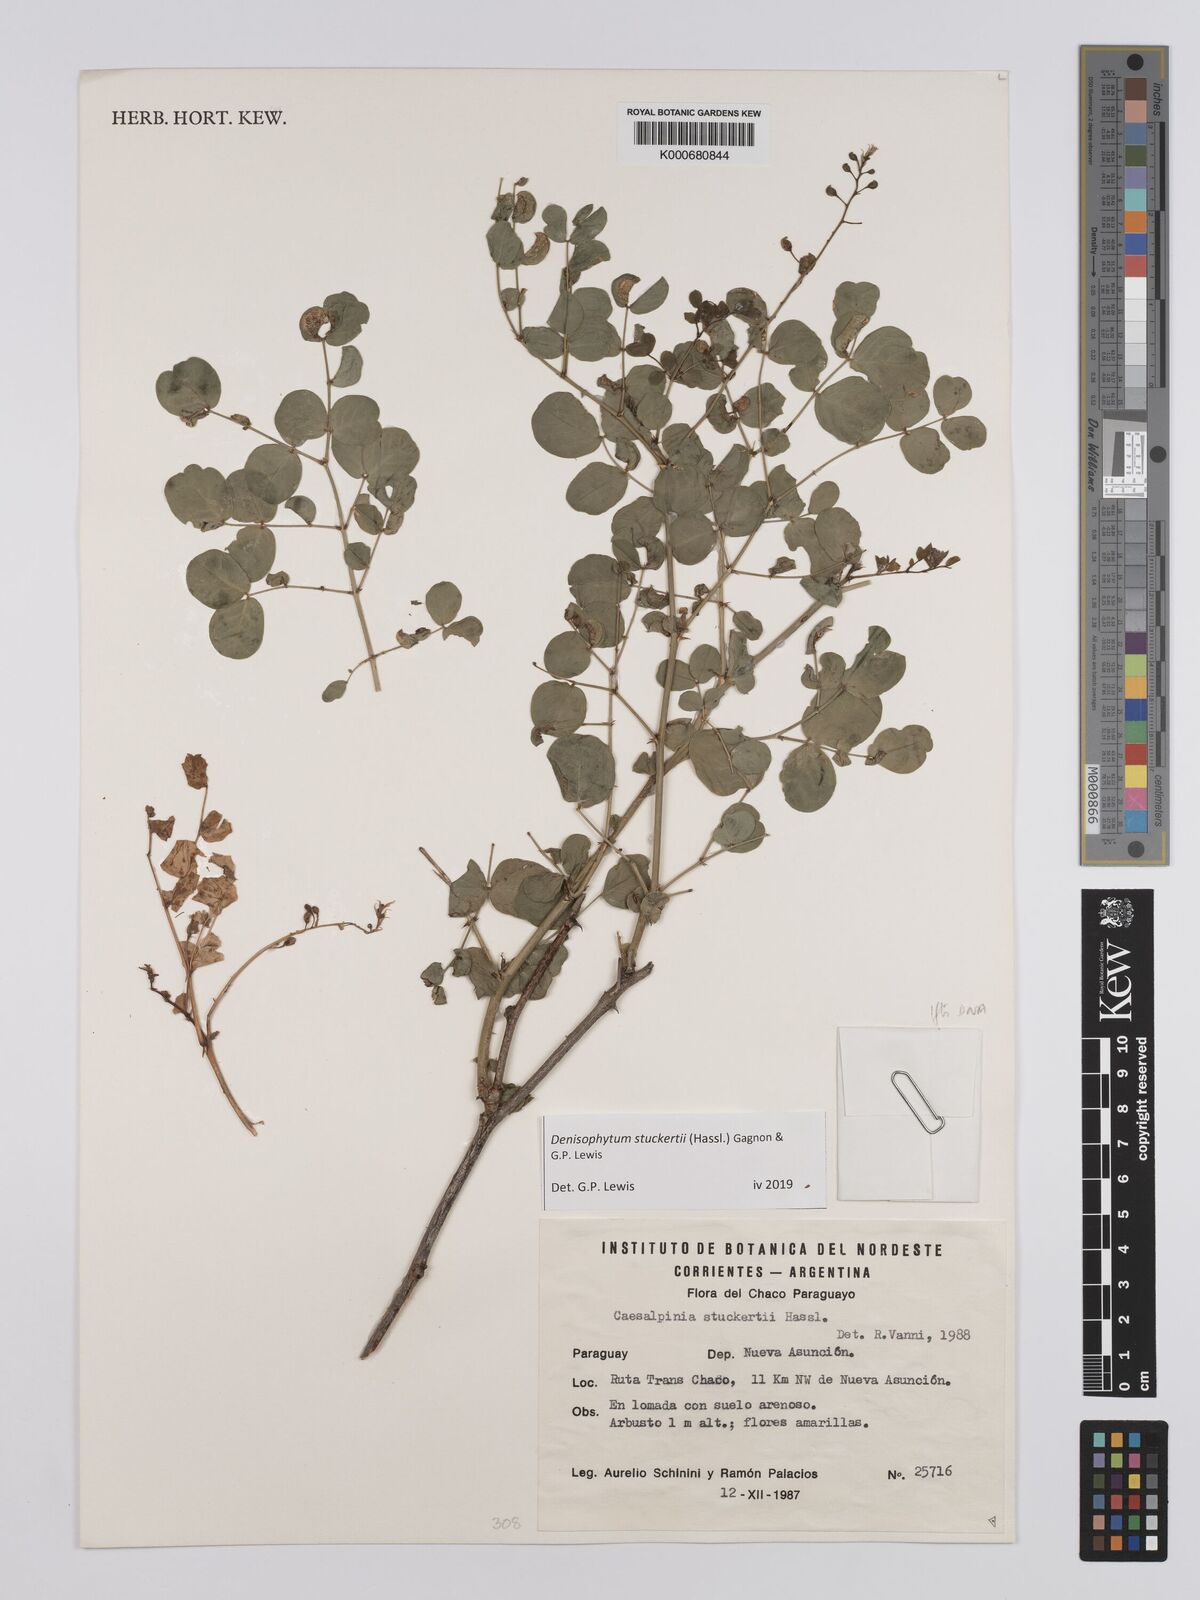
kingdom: Plantae
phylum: Tracheophyta
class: Magnoliopsida
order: Fabales
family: Fabaceae
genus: Denisophytum
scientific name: Denisophytum stuckertii
